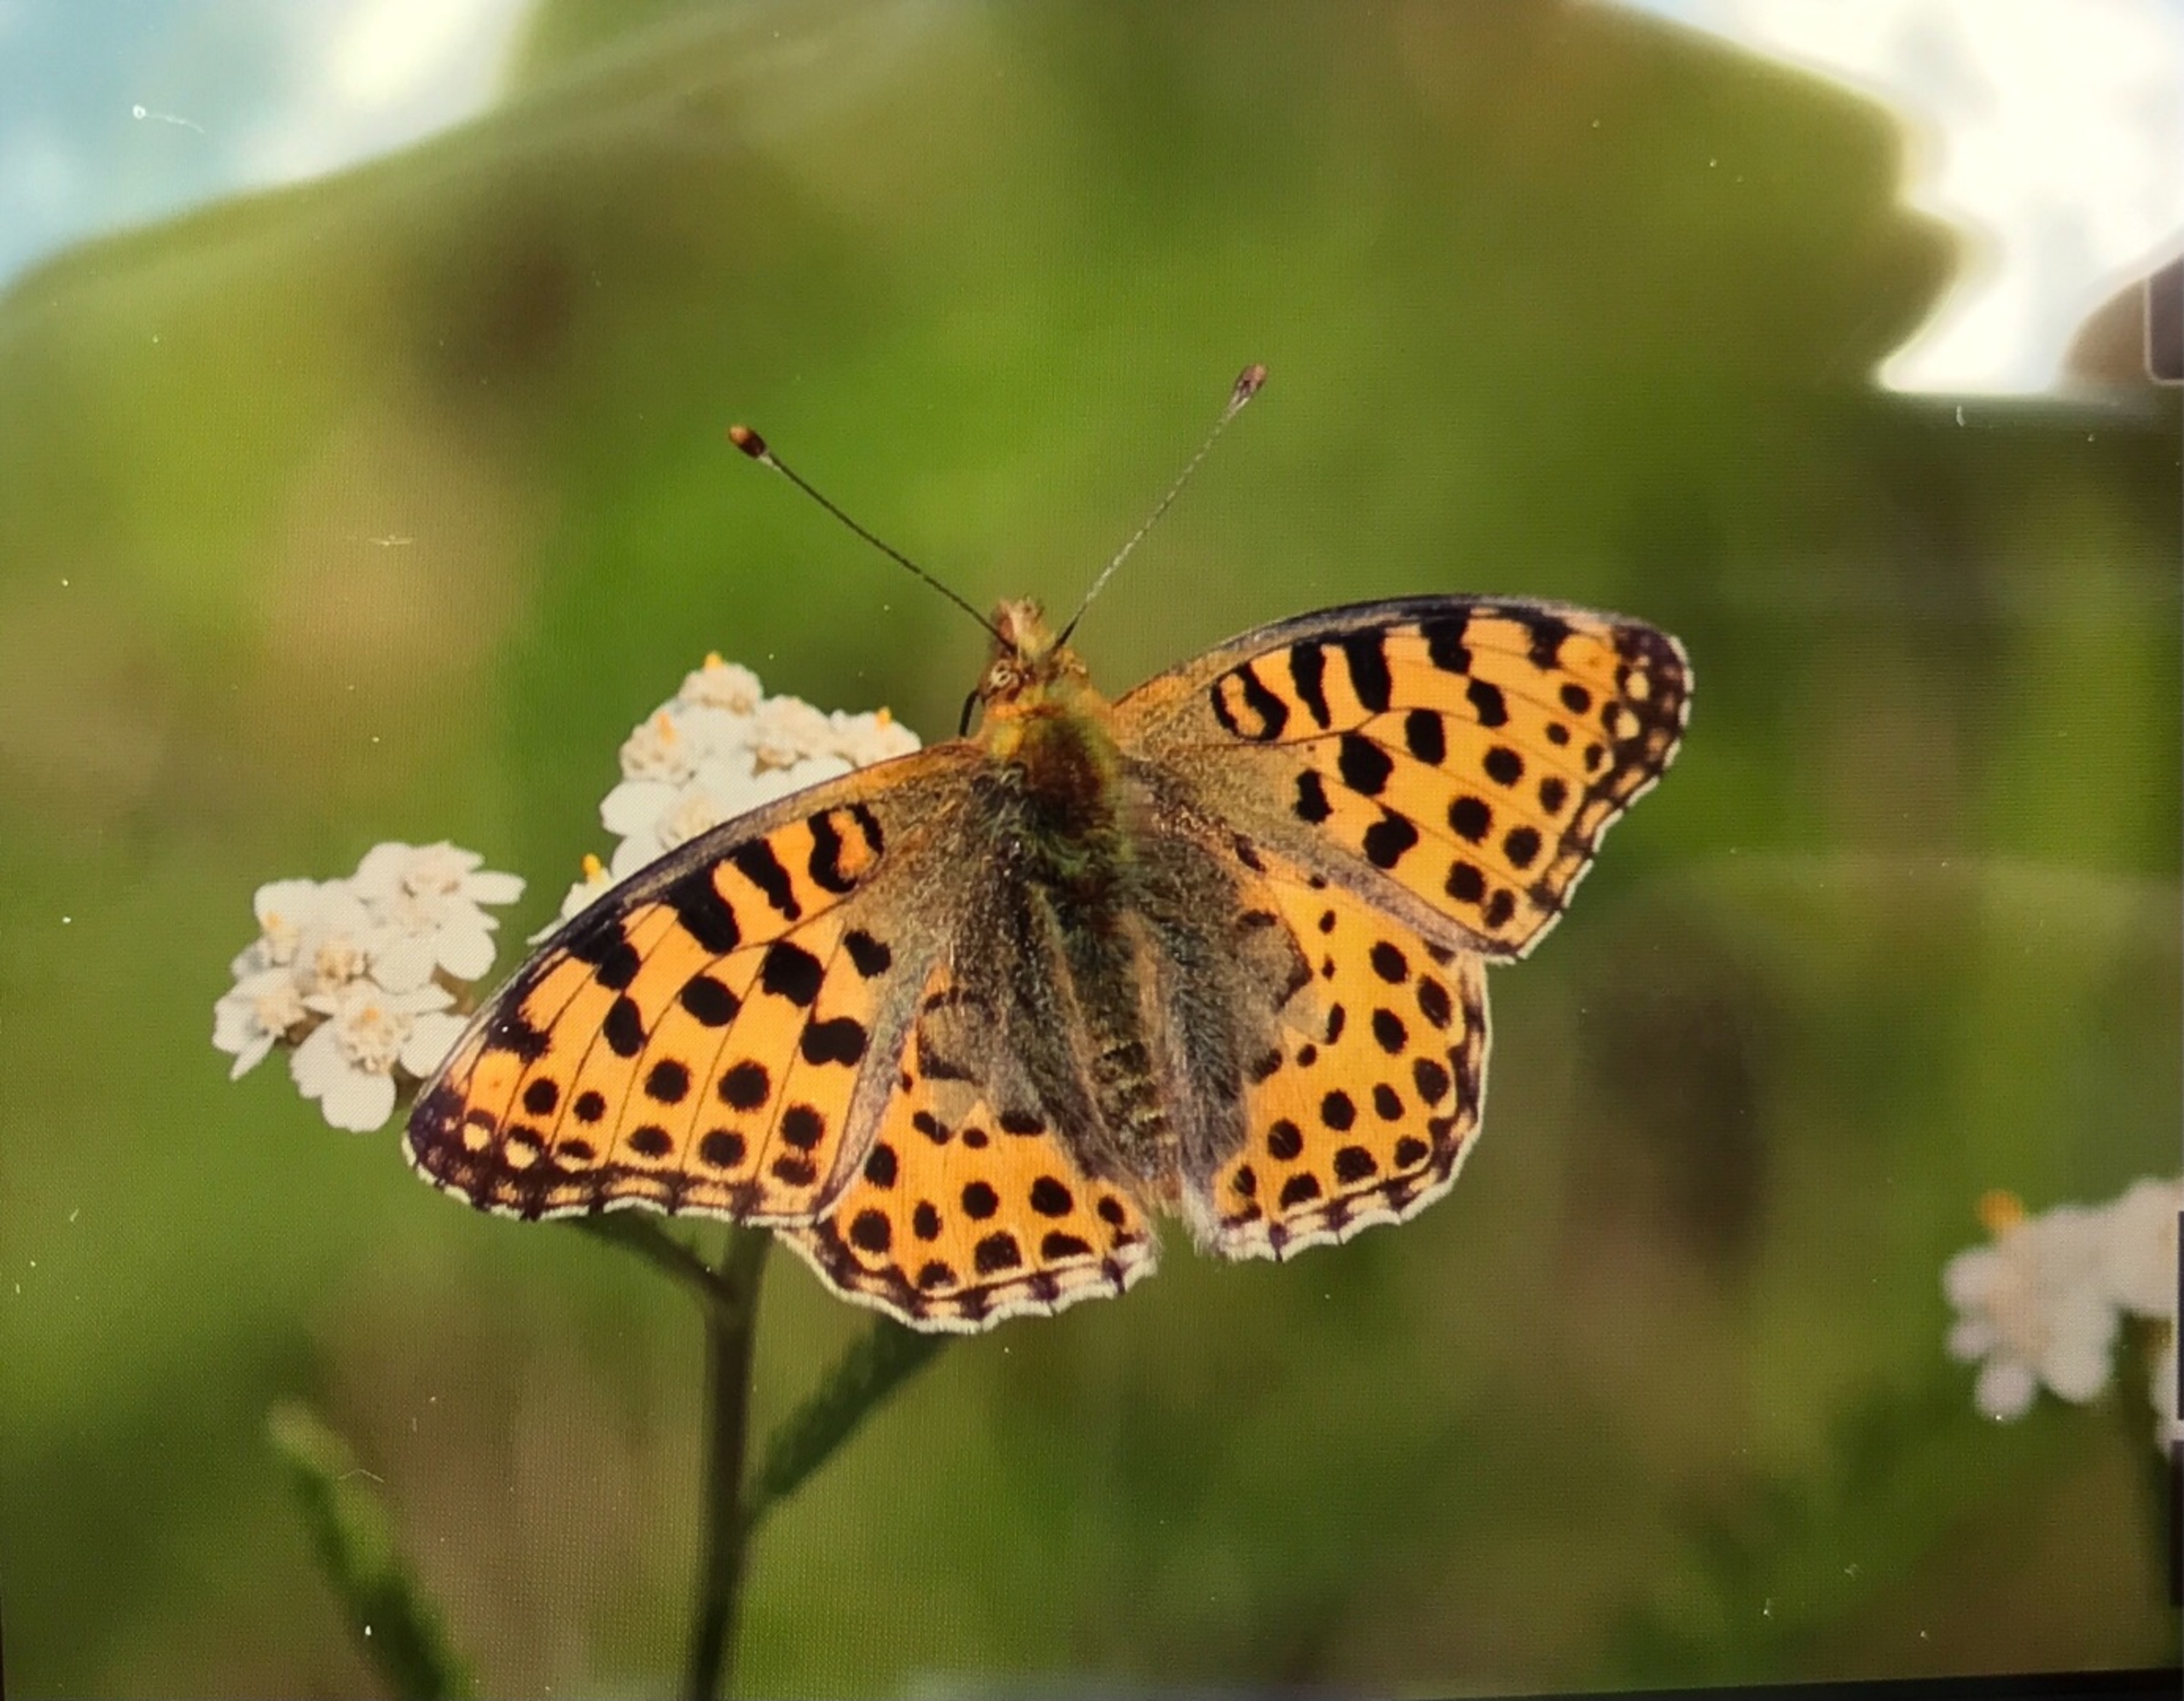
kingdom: Animalia
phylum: Arthropoda
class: Insecta
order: Lepidoptera
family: Nymphalidae
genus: Issoria
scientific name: Issoria lathonia
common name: Storplettet perlemorsommerfugl
